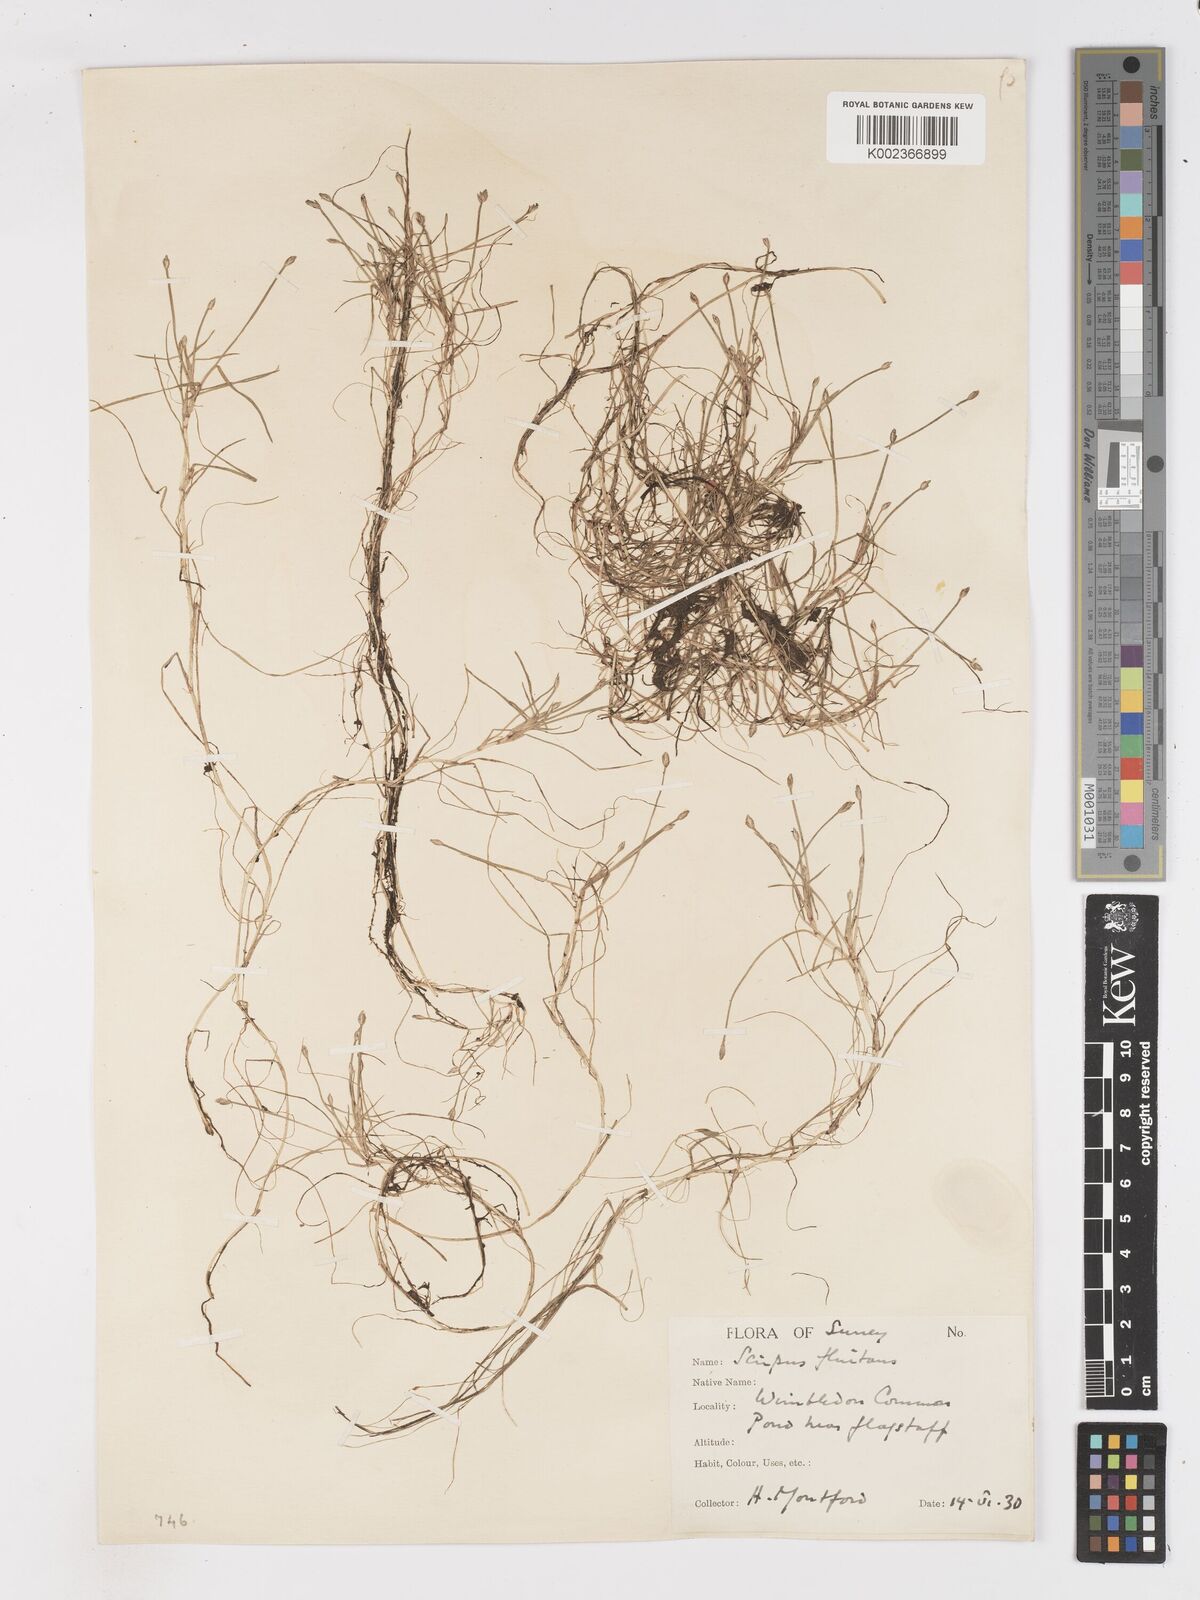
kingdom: Plantae
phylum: Tracheophyta
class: Liliopsida
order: Poales
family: Cyperaceae
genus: Isolepis
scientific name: Isolepis fluitans
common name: Floating club-rush
